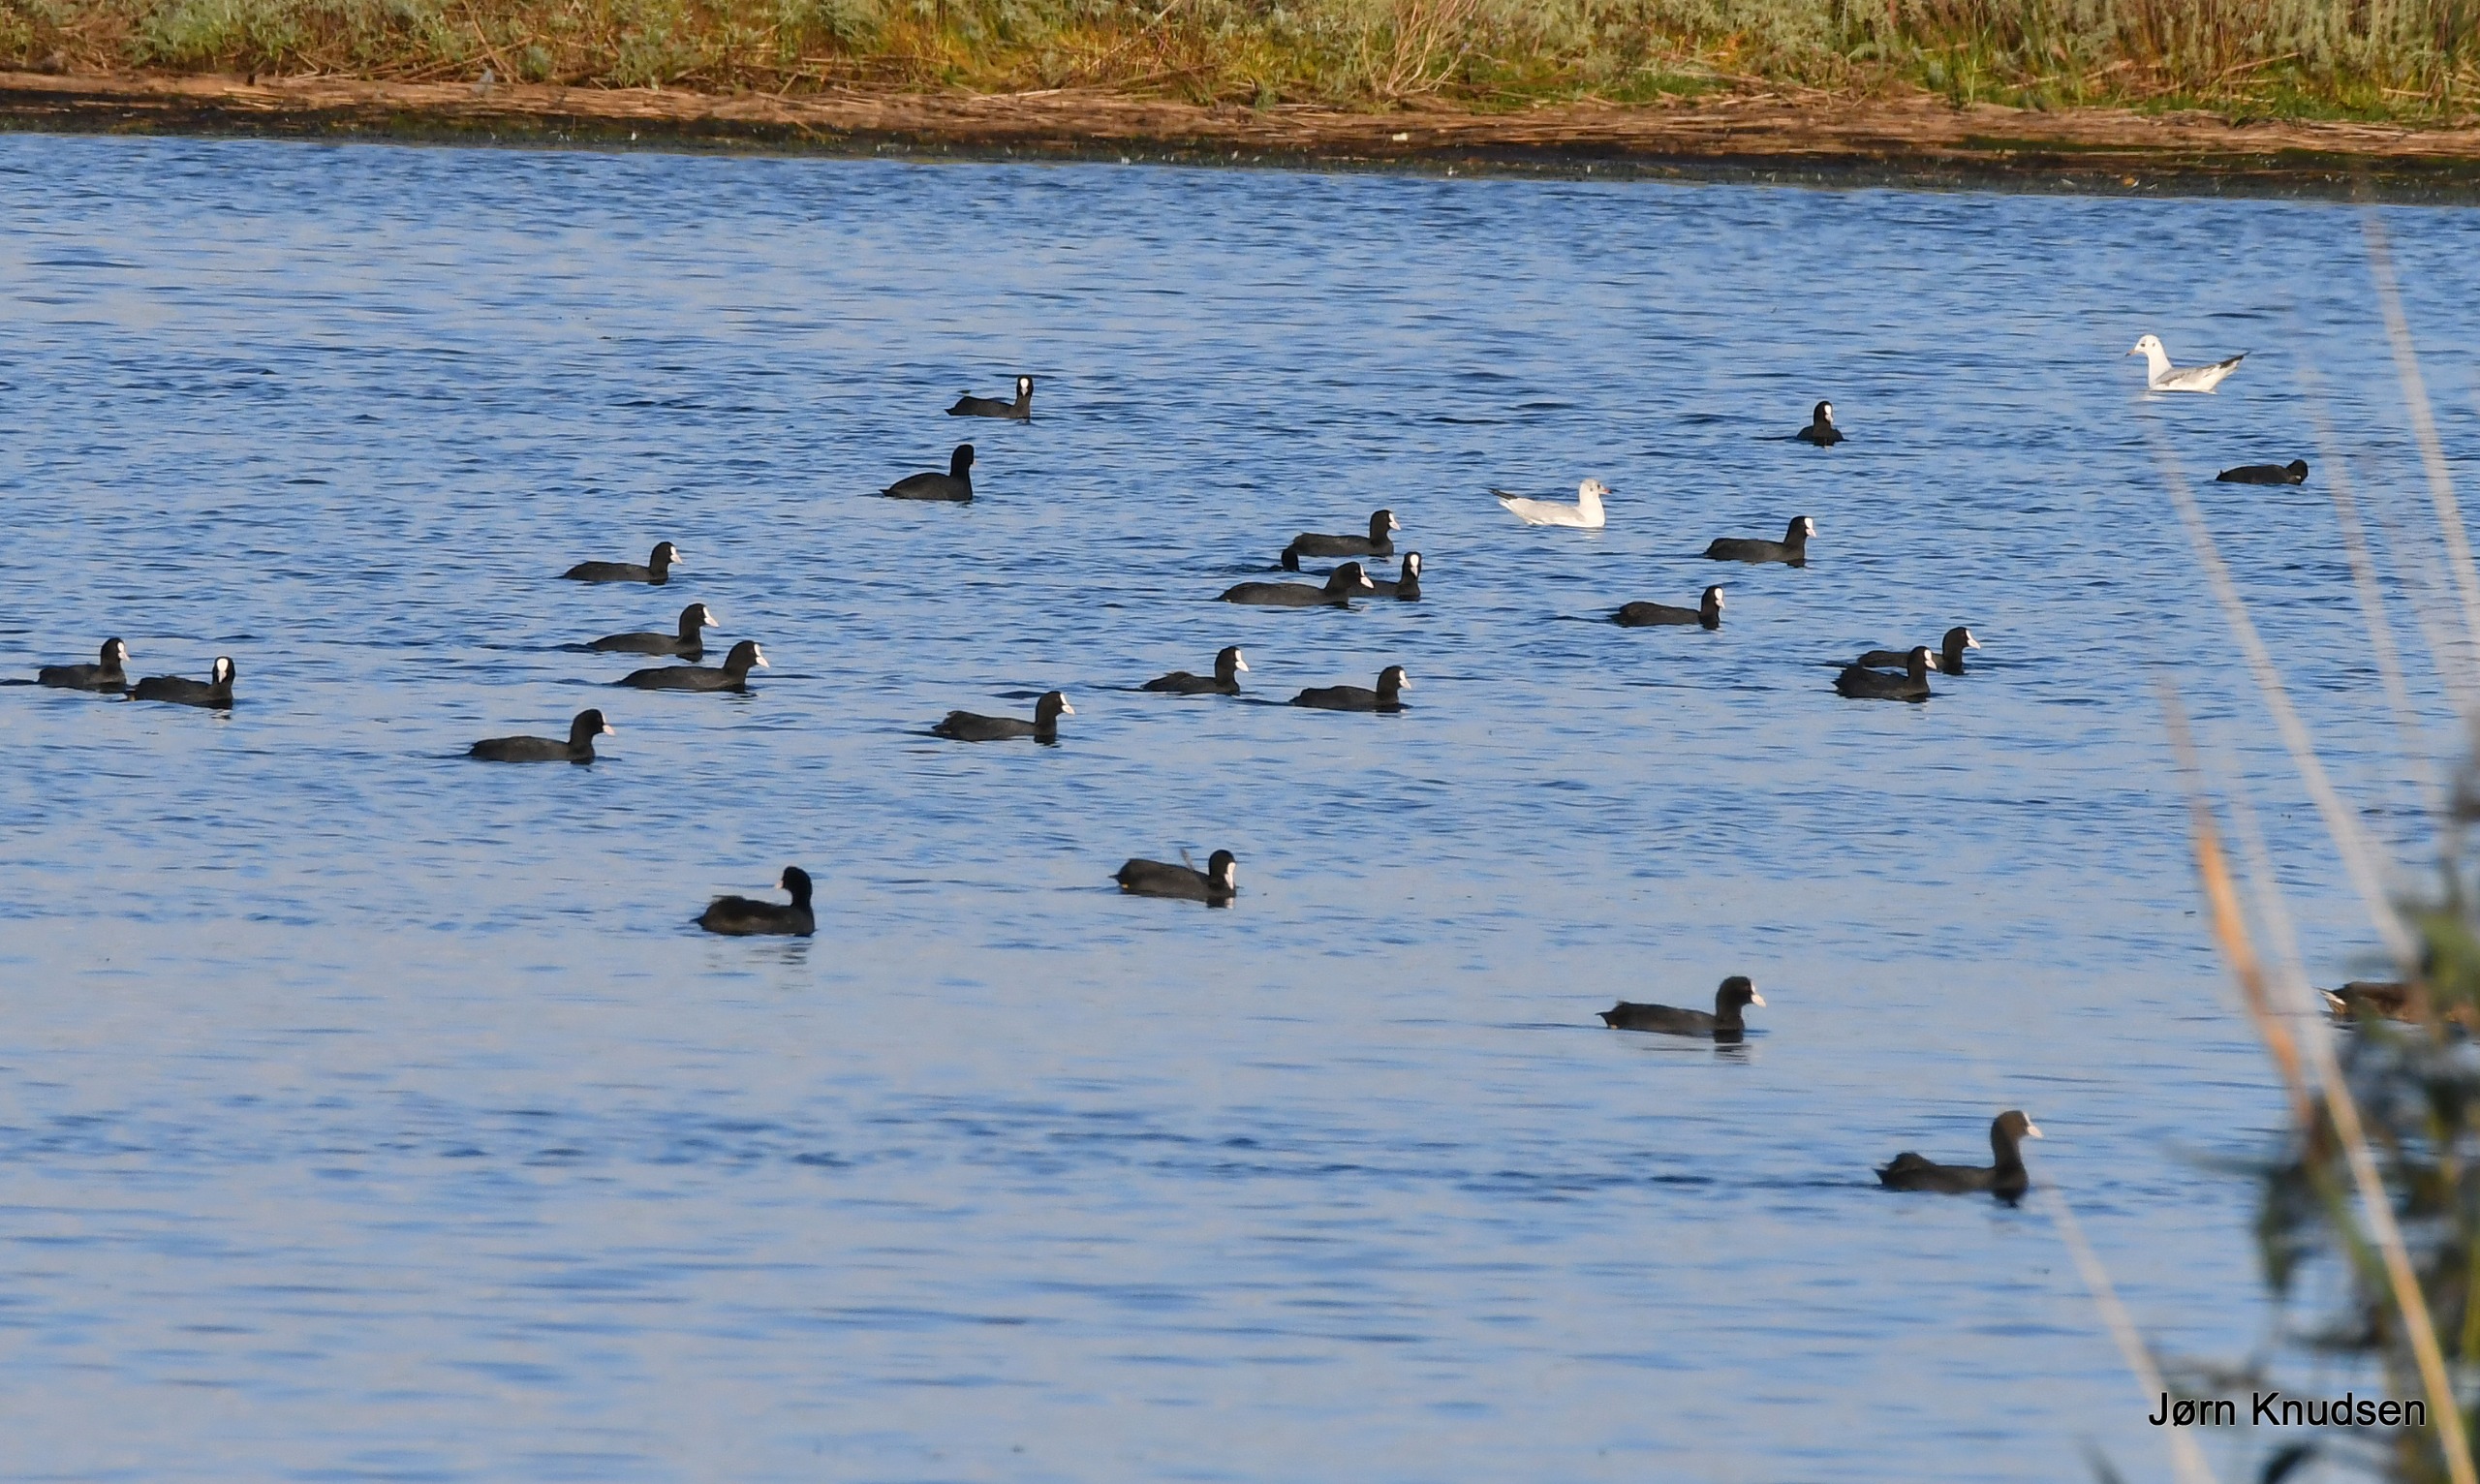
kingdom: Animalia
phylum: Chordata
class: Aves
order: Gruiformes
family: Rallidae
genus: Fulica
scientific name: Fulica atra
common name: Blishøne
